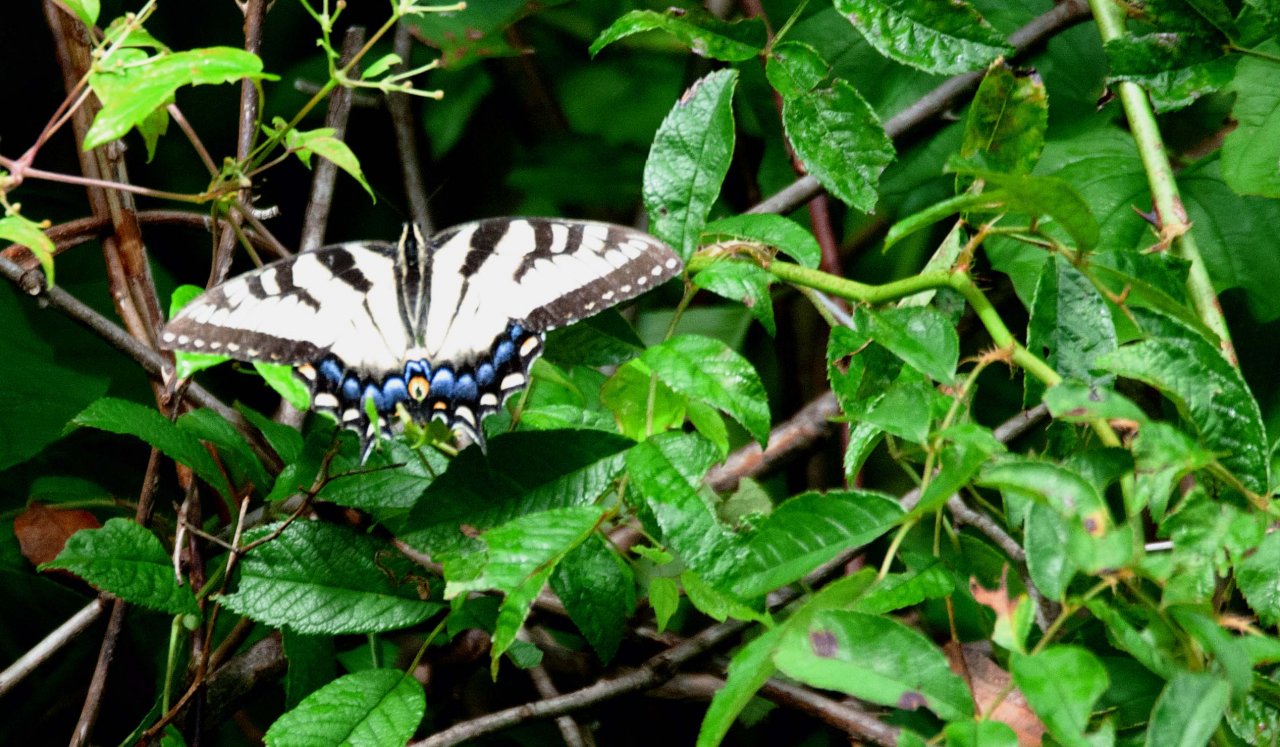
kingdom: Animalia
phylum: Arthropoda
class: Insecta
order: Lepidoptera
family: Papilionidae
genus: Pterourus
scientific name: Pterourus glaucus
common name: Eastern Tiger Swallowtail
